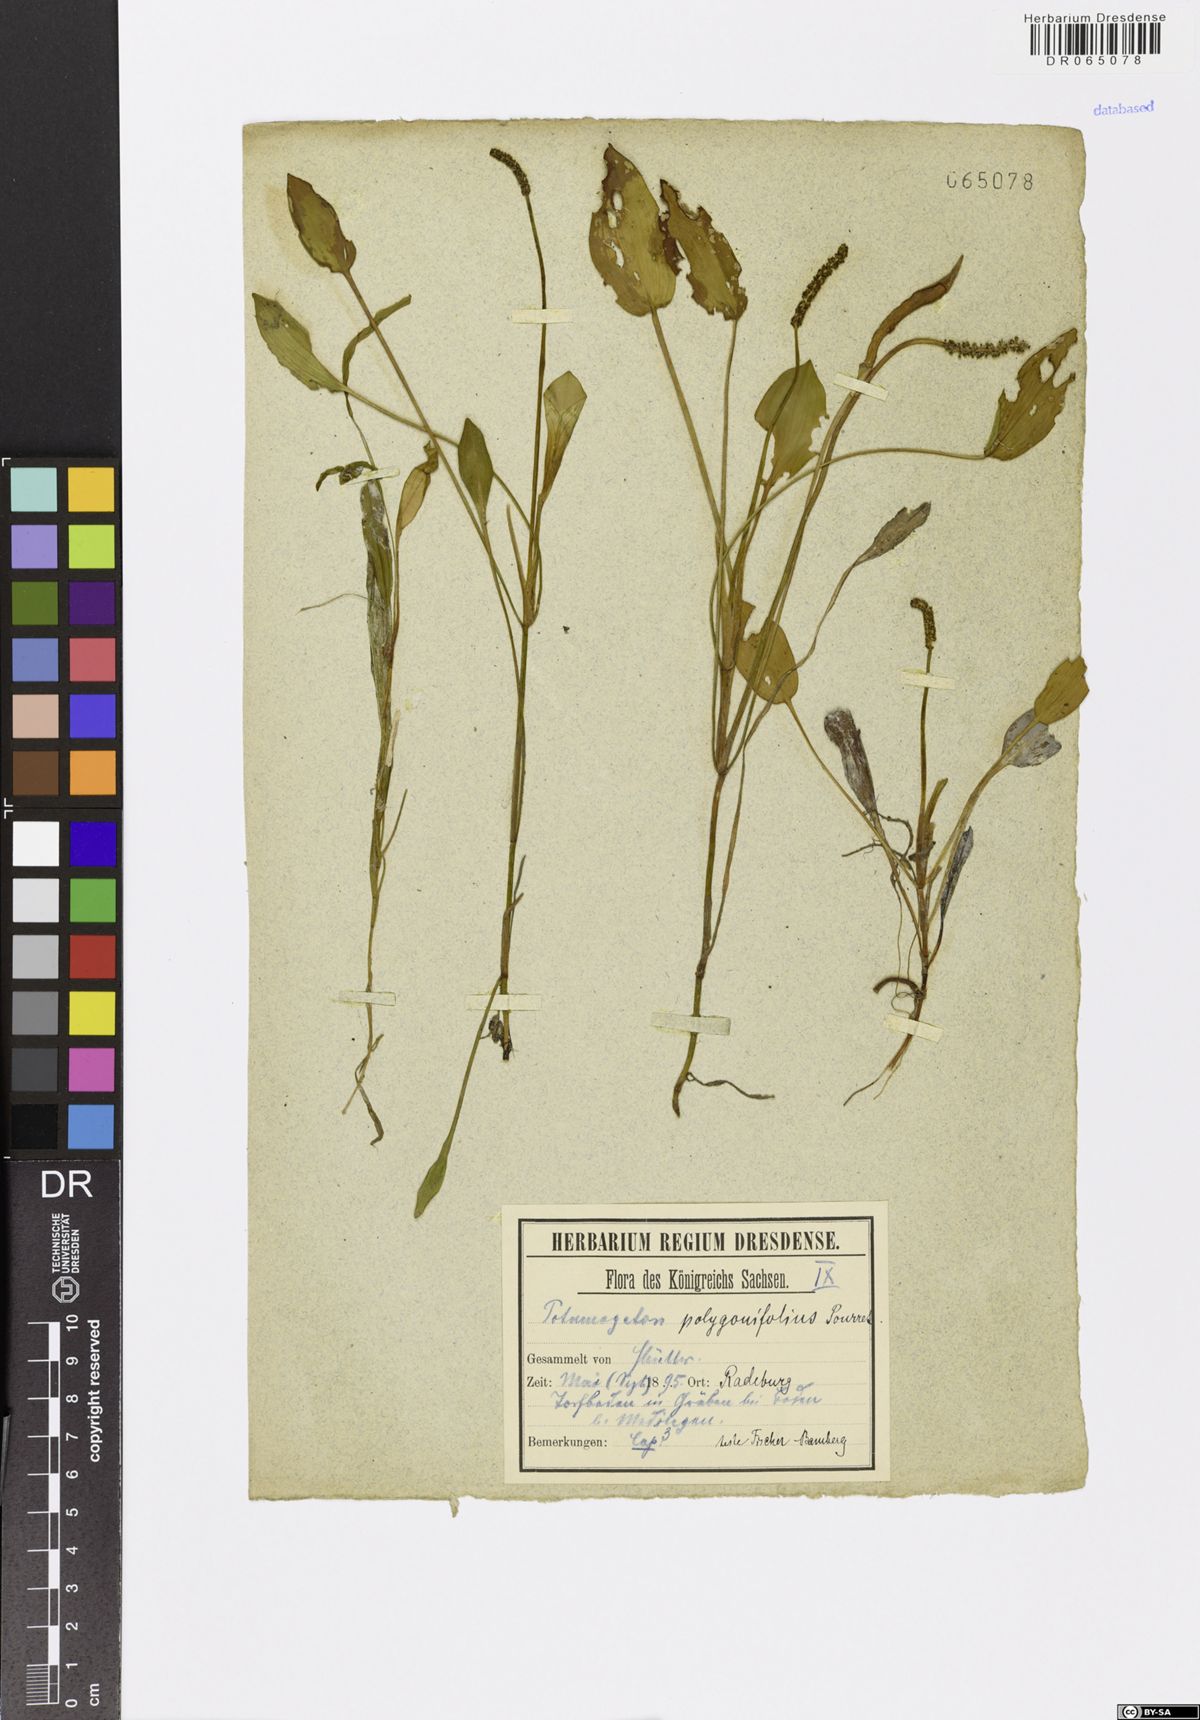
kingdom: Plantae
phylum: Tracheophyta
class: Liliopsida
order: Alismatales
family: Potamogetonaceae
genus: Potamogeton
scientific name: Potamogeton polygonifolius
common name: Bog pondweed
